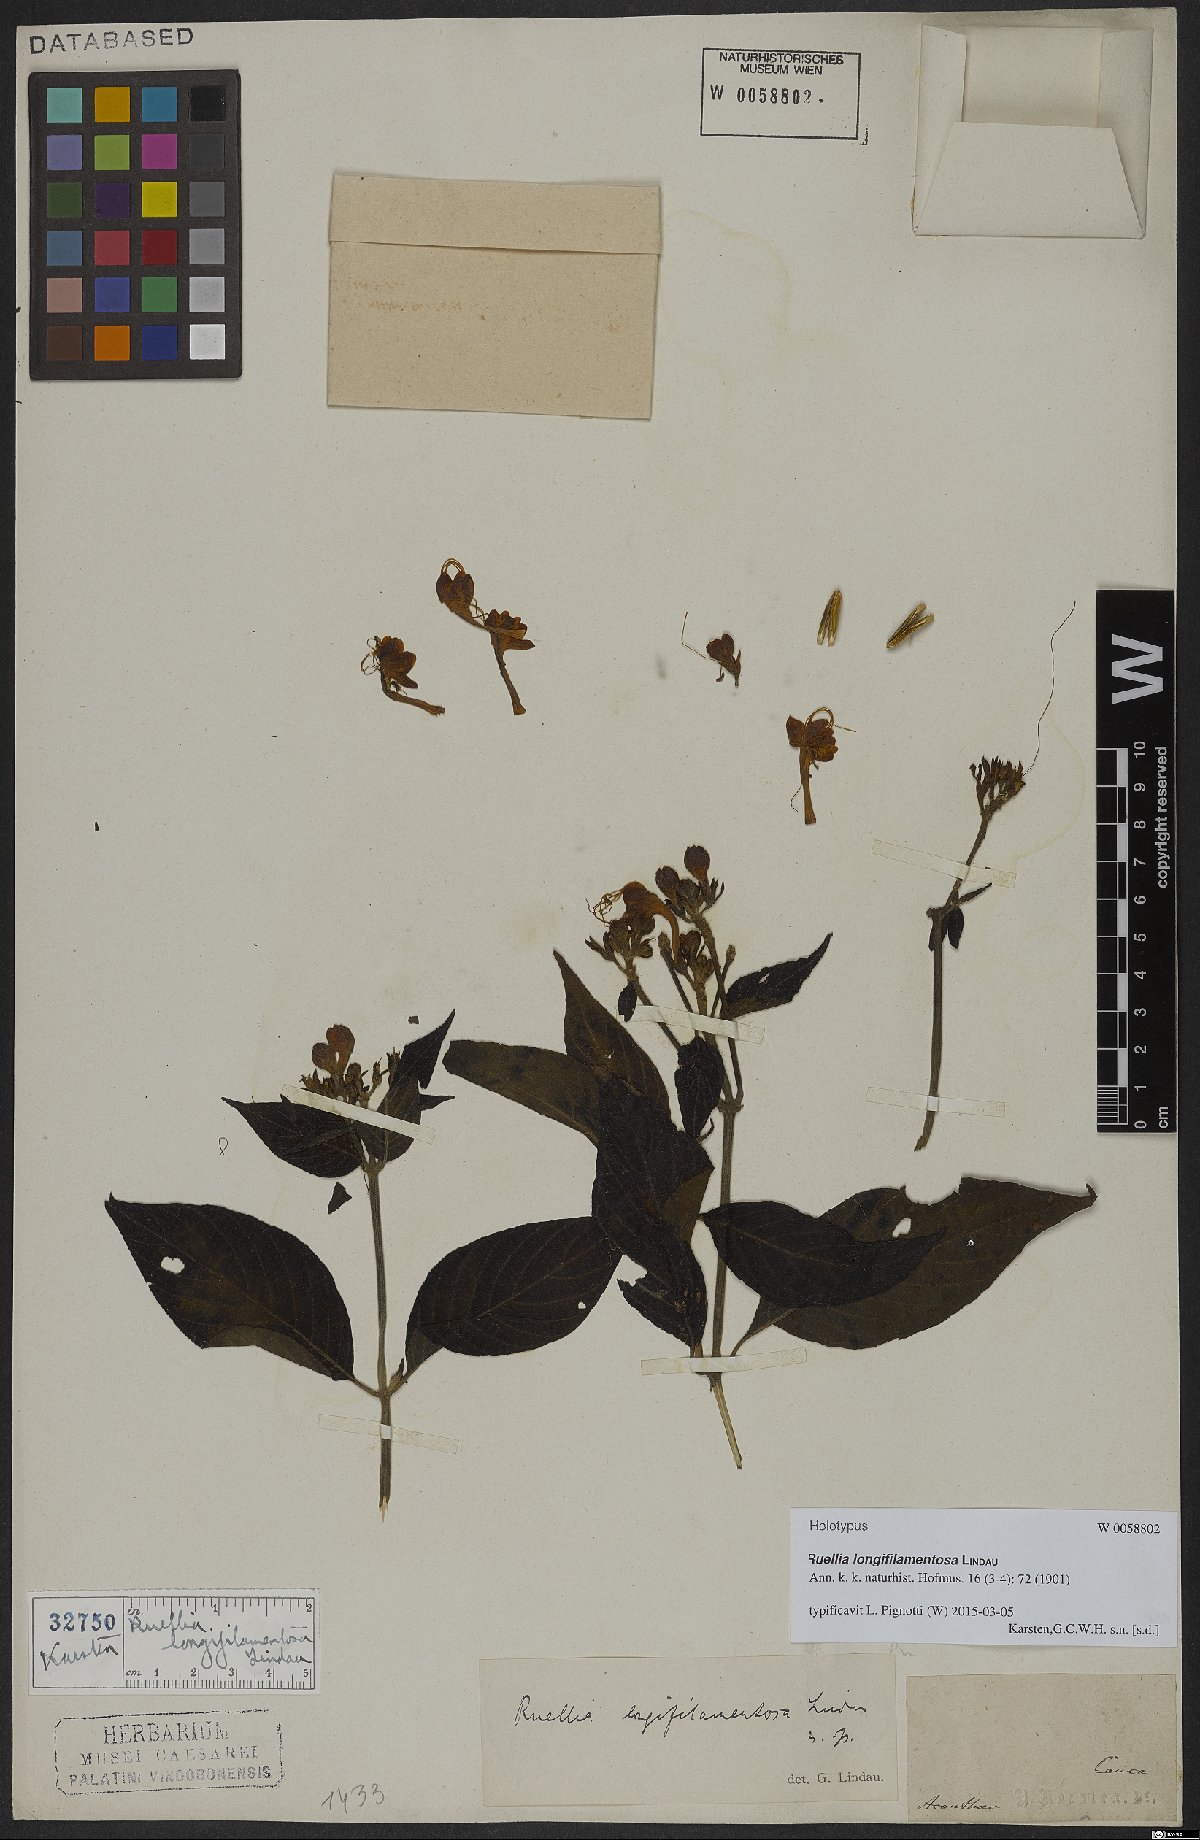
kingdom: Plantae
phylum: Tracheophyta
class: Magnoliopsida
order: Lamiales
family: Acanthaceae
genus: Ruellia
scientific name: Ruellia longifilamentosa
